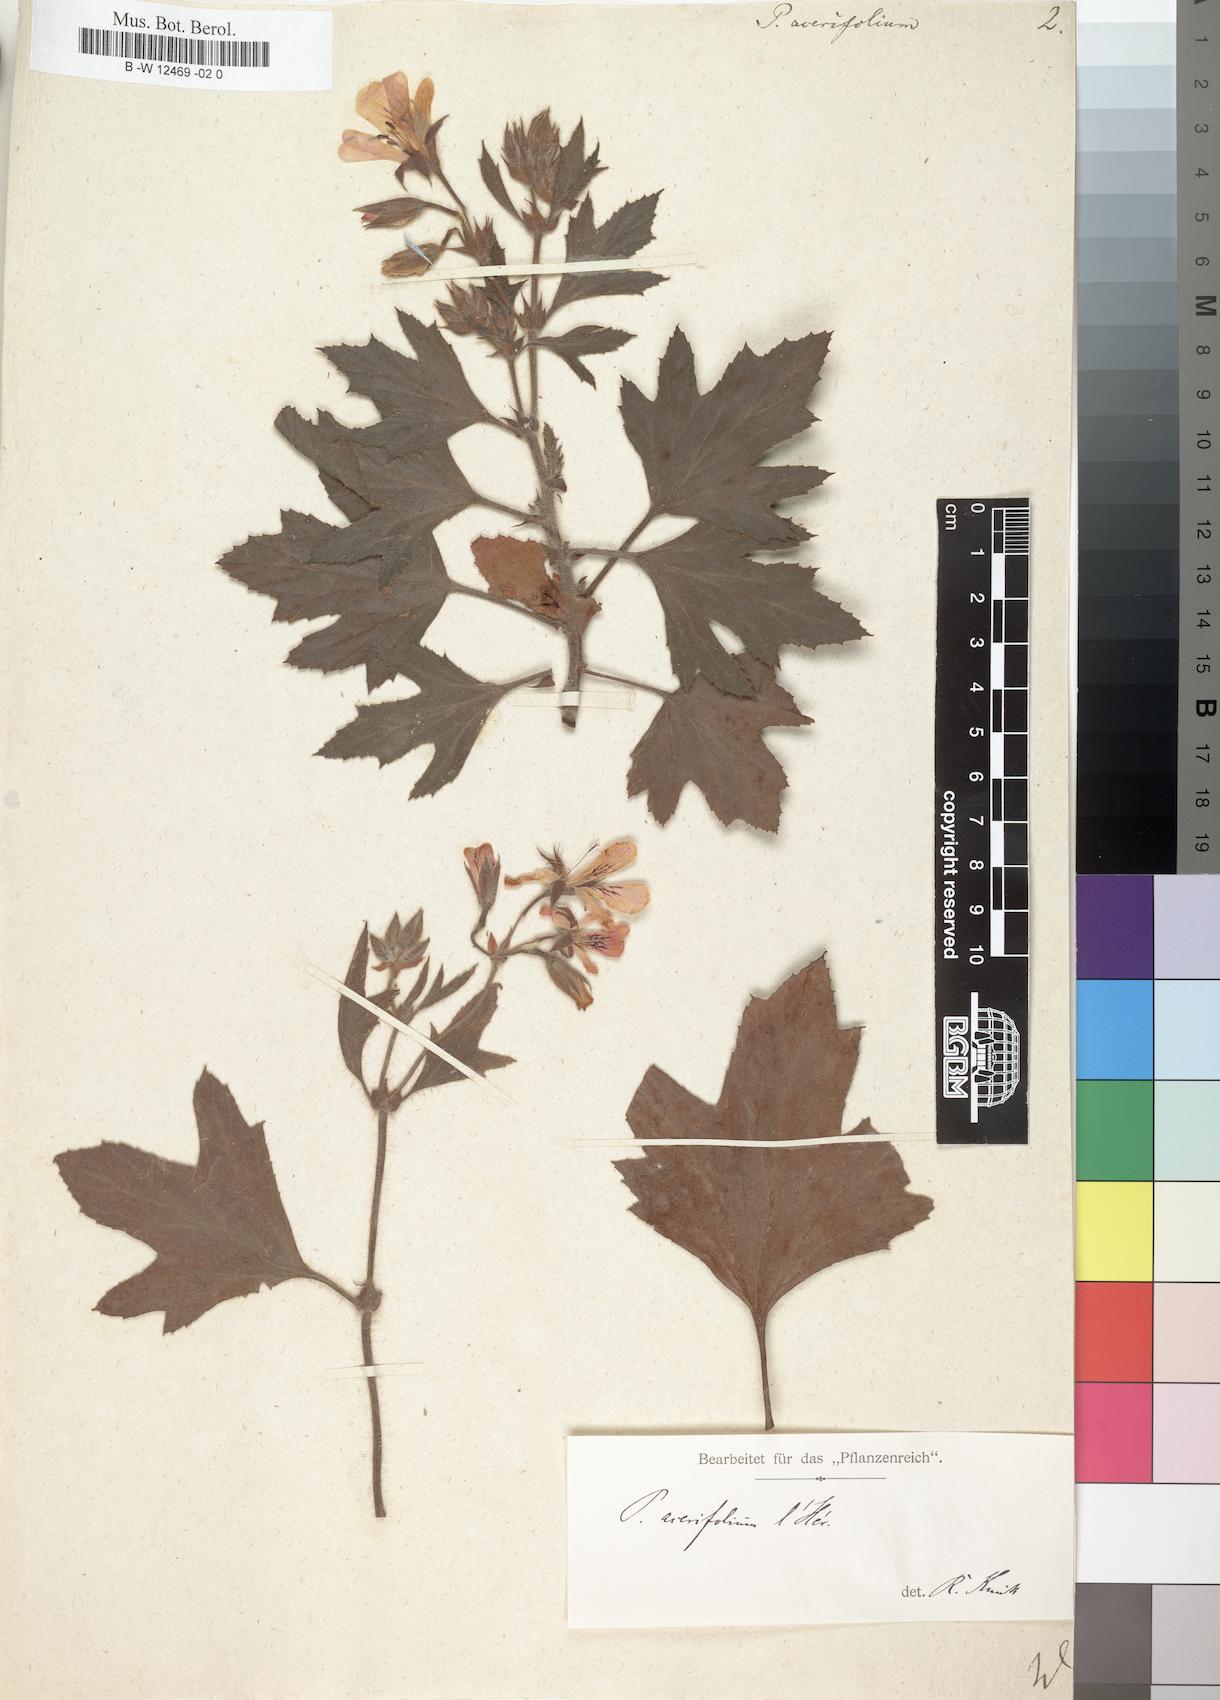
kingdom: Plantae
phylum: Tracheophyta
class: Magnoliopsida
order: Geraniales
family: Geraniaceae
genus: Pelargonium
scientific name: Pelargonium cucullatum
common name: Tree pelargonium
